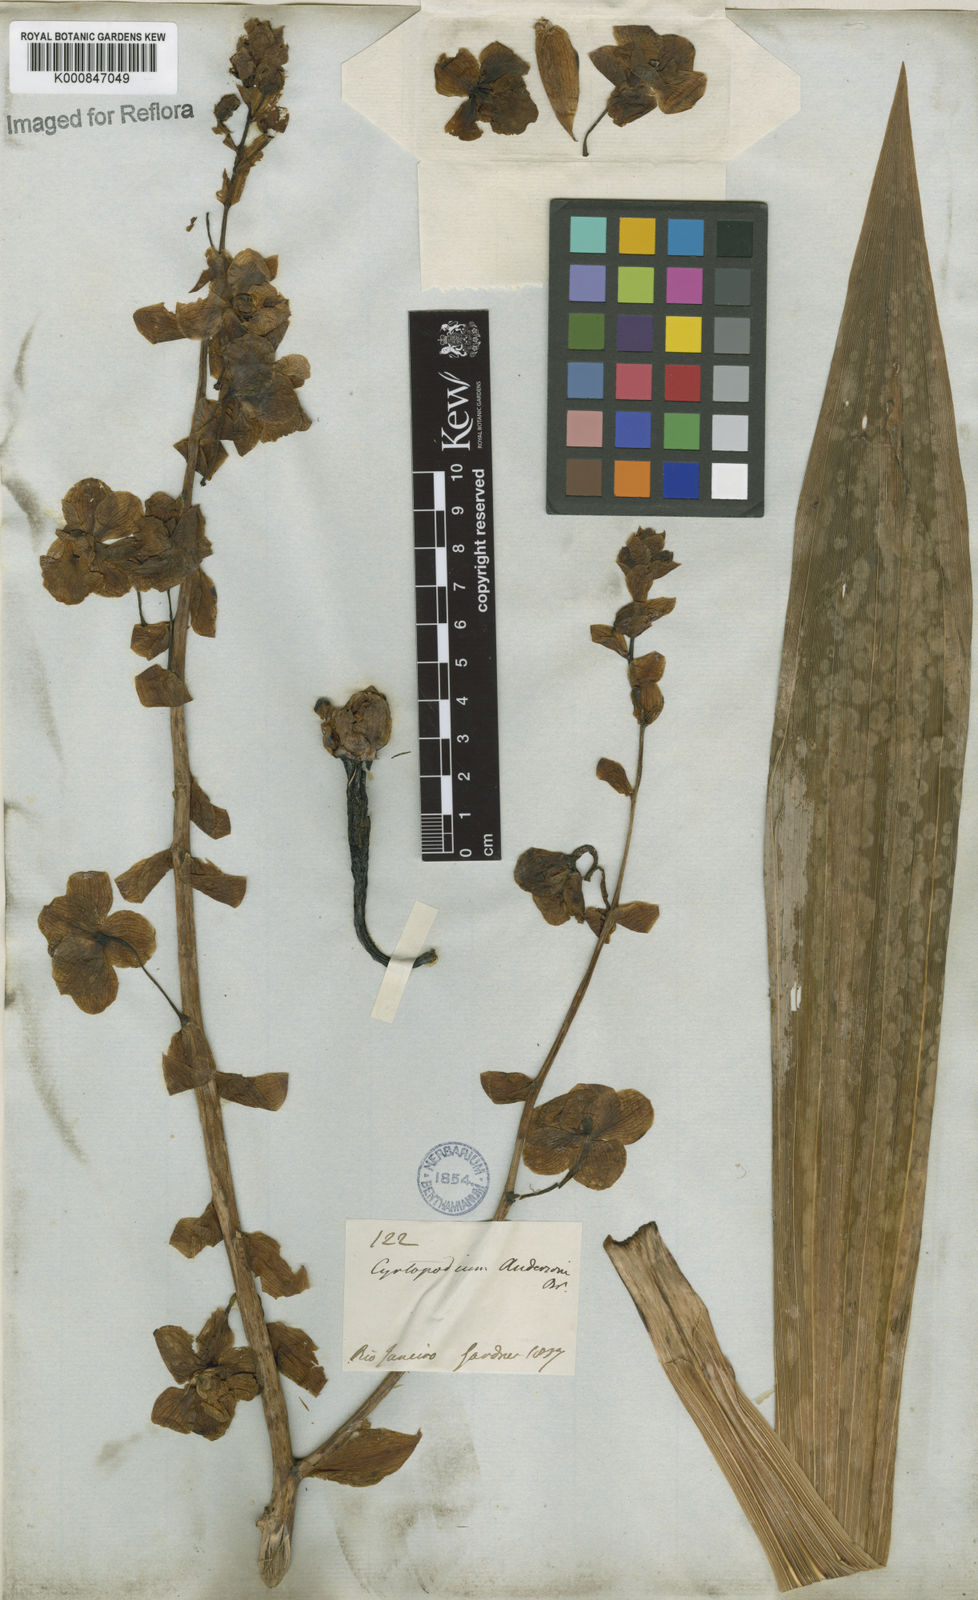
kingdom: Plantae
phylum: Tracheophyta
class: Liliopsida
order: Asparagales
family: Orchidaceae
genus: Cyrtopodium
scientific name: Cyrtopodium andersonii
